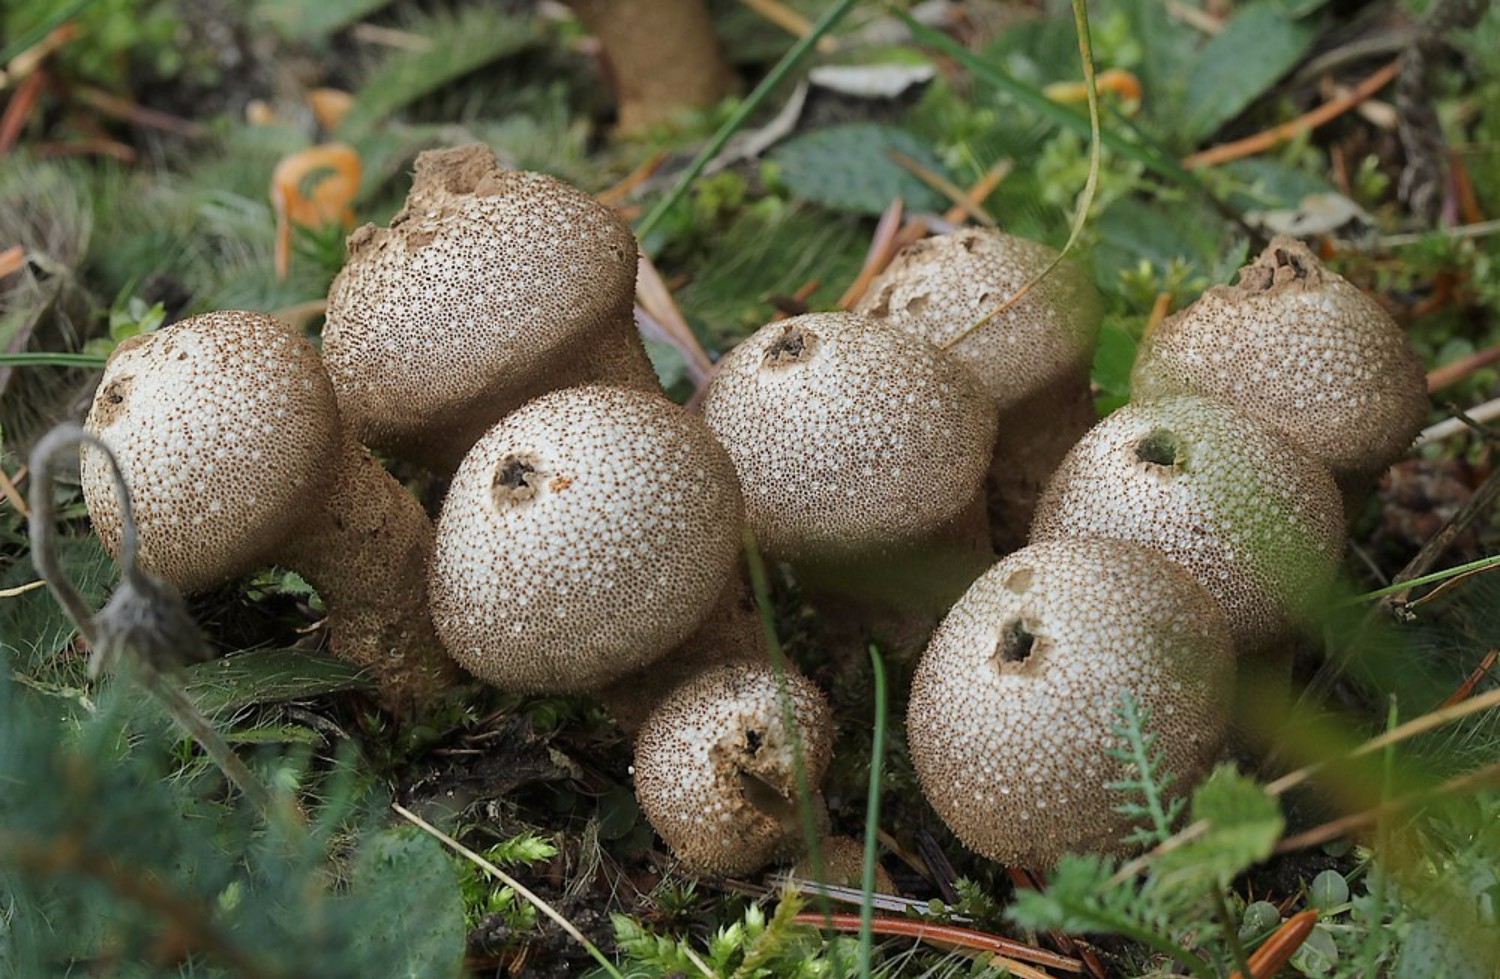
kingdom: Fungi
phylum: Basidiomycota
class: Agaricomycetes
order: Agaricales
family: Lycoperdaceae
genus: Lycoperdon
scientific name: Lycoperdon perlatum
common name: krystal-støvbold
